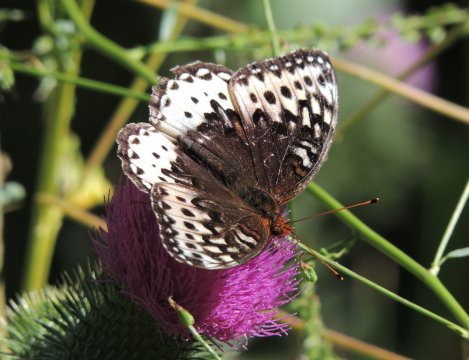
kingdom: Animalia
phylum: Arthropoda
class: Insecta
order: Lepidoptera
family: Nymphalidae
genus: Speyeria
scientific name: Speyeria cybele
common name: Great Spangled Fritillary
